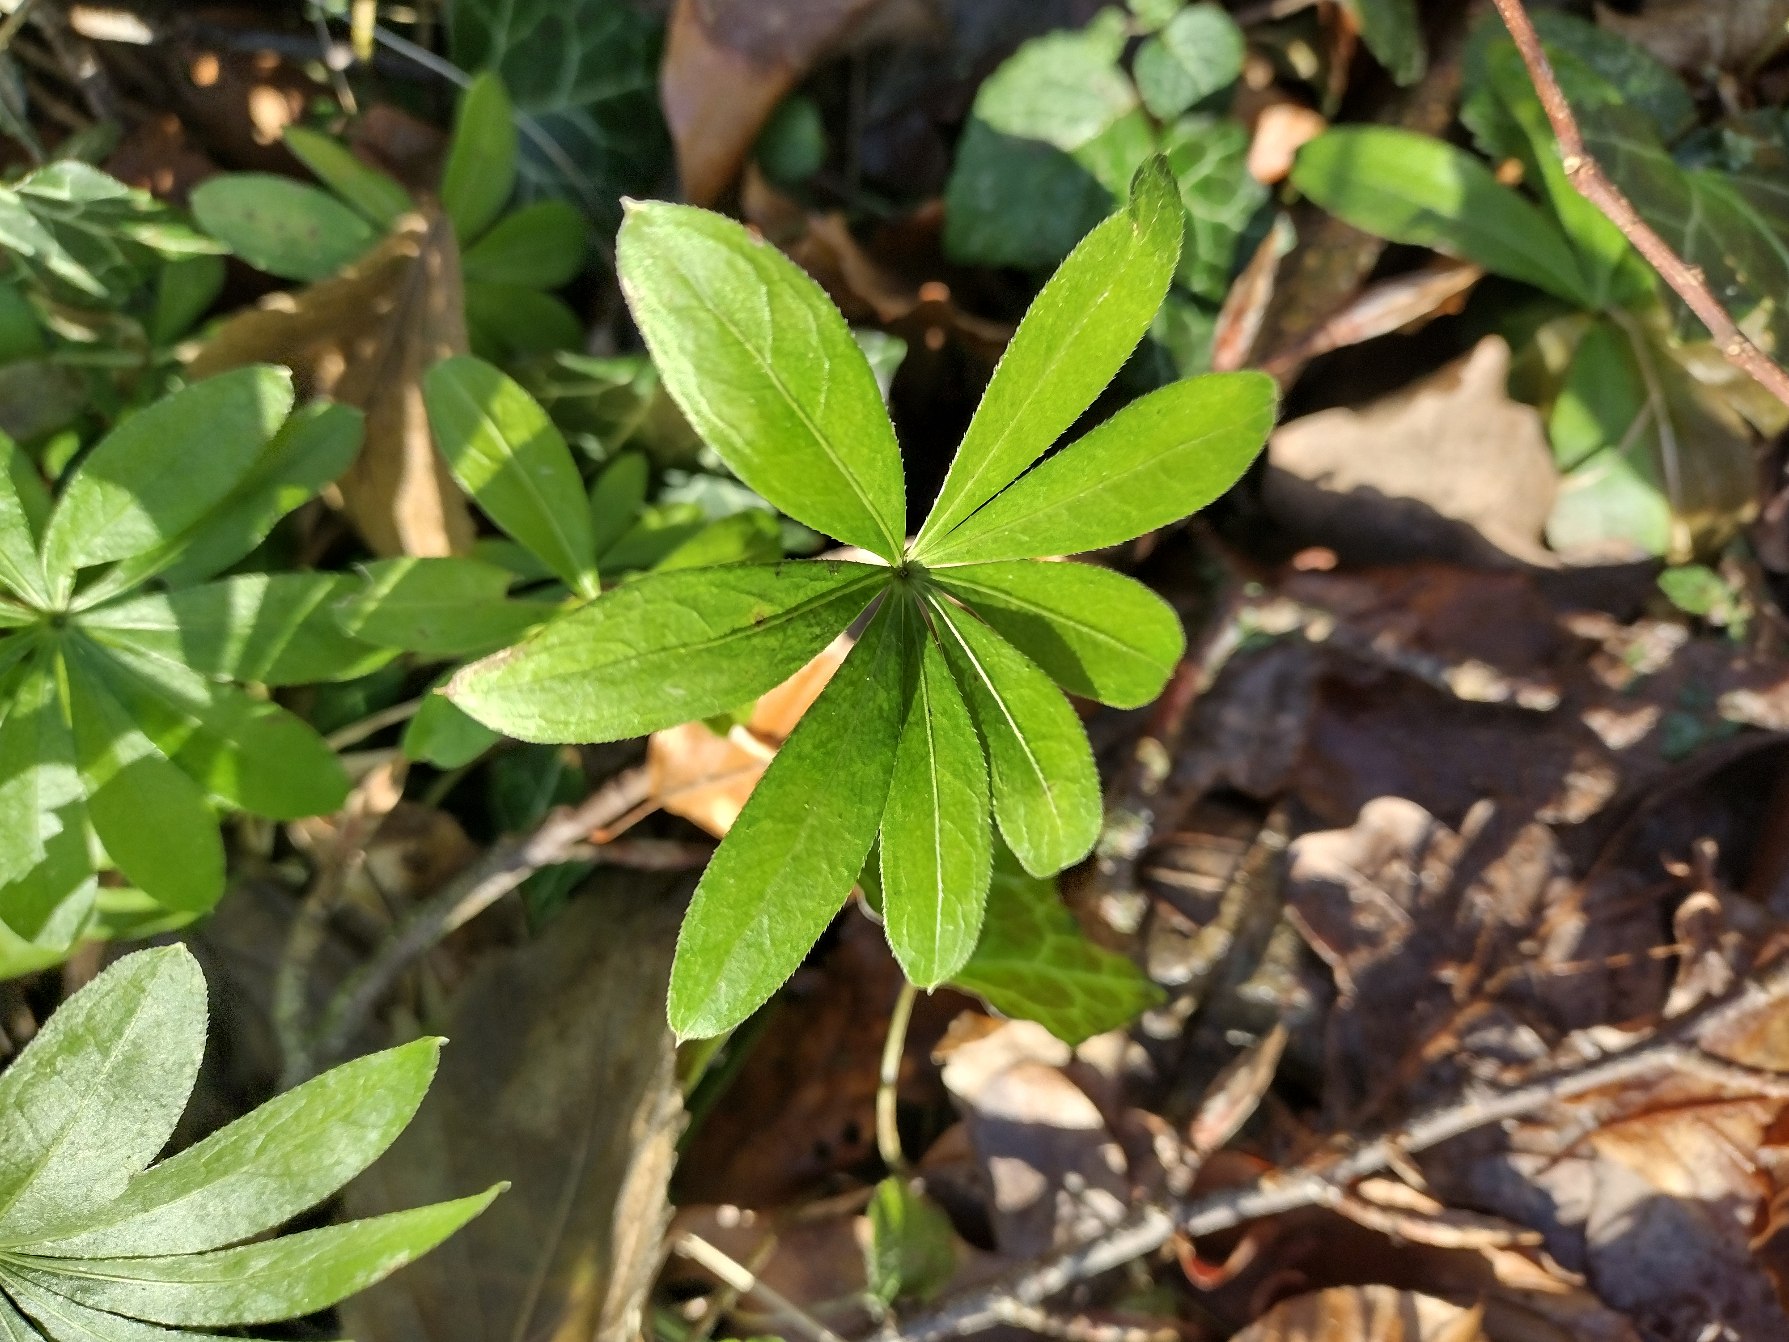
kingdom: Plantae
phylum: Tracheophyta
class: Magnoliopsida
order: Gentianales
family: Rubiaceae
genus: Galium
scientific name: Galium odoratum
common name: Skovmærke
